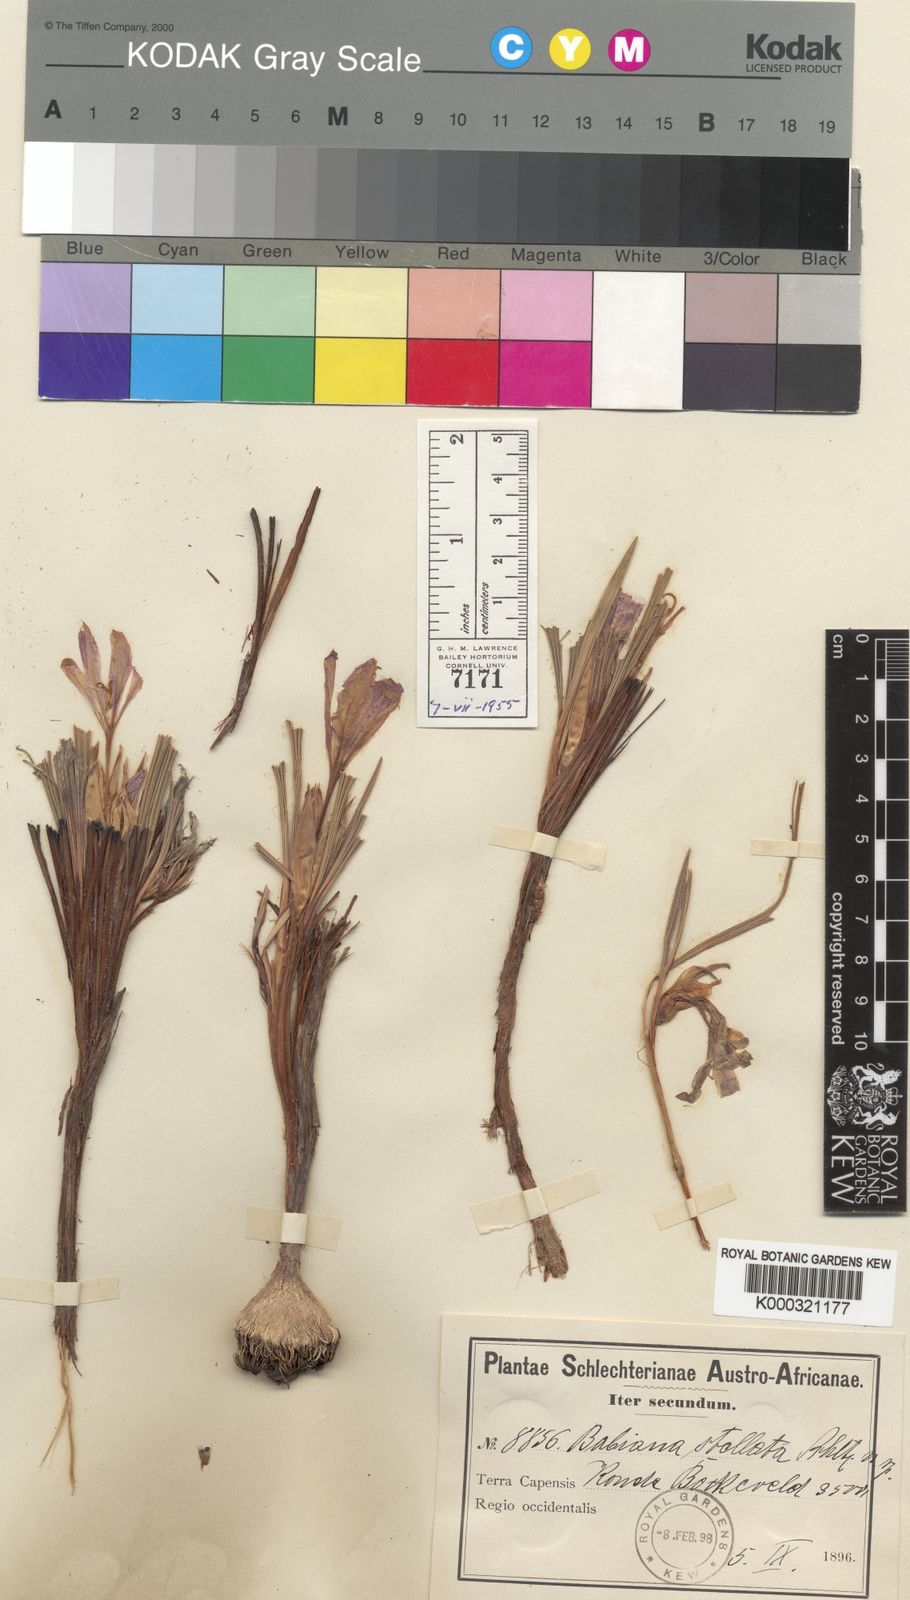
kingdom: Plantae
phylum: Tracheophyta
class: Liliopsida
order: Asparagales
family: Iridaceae
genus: Babiana
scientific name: Babiana sambucina
